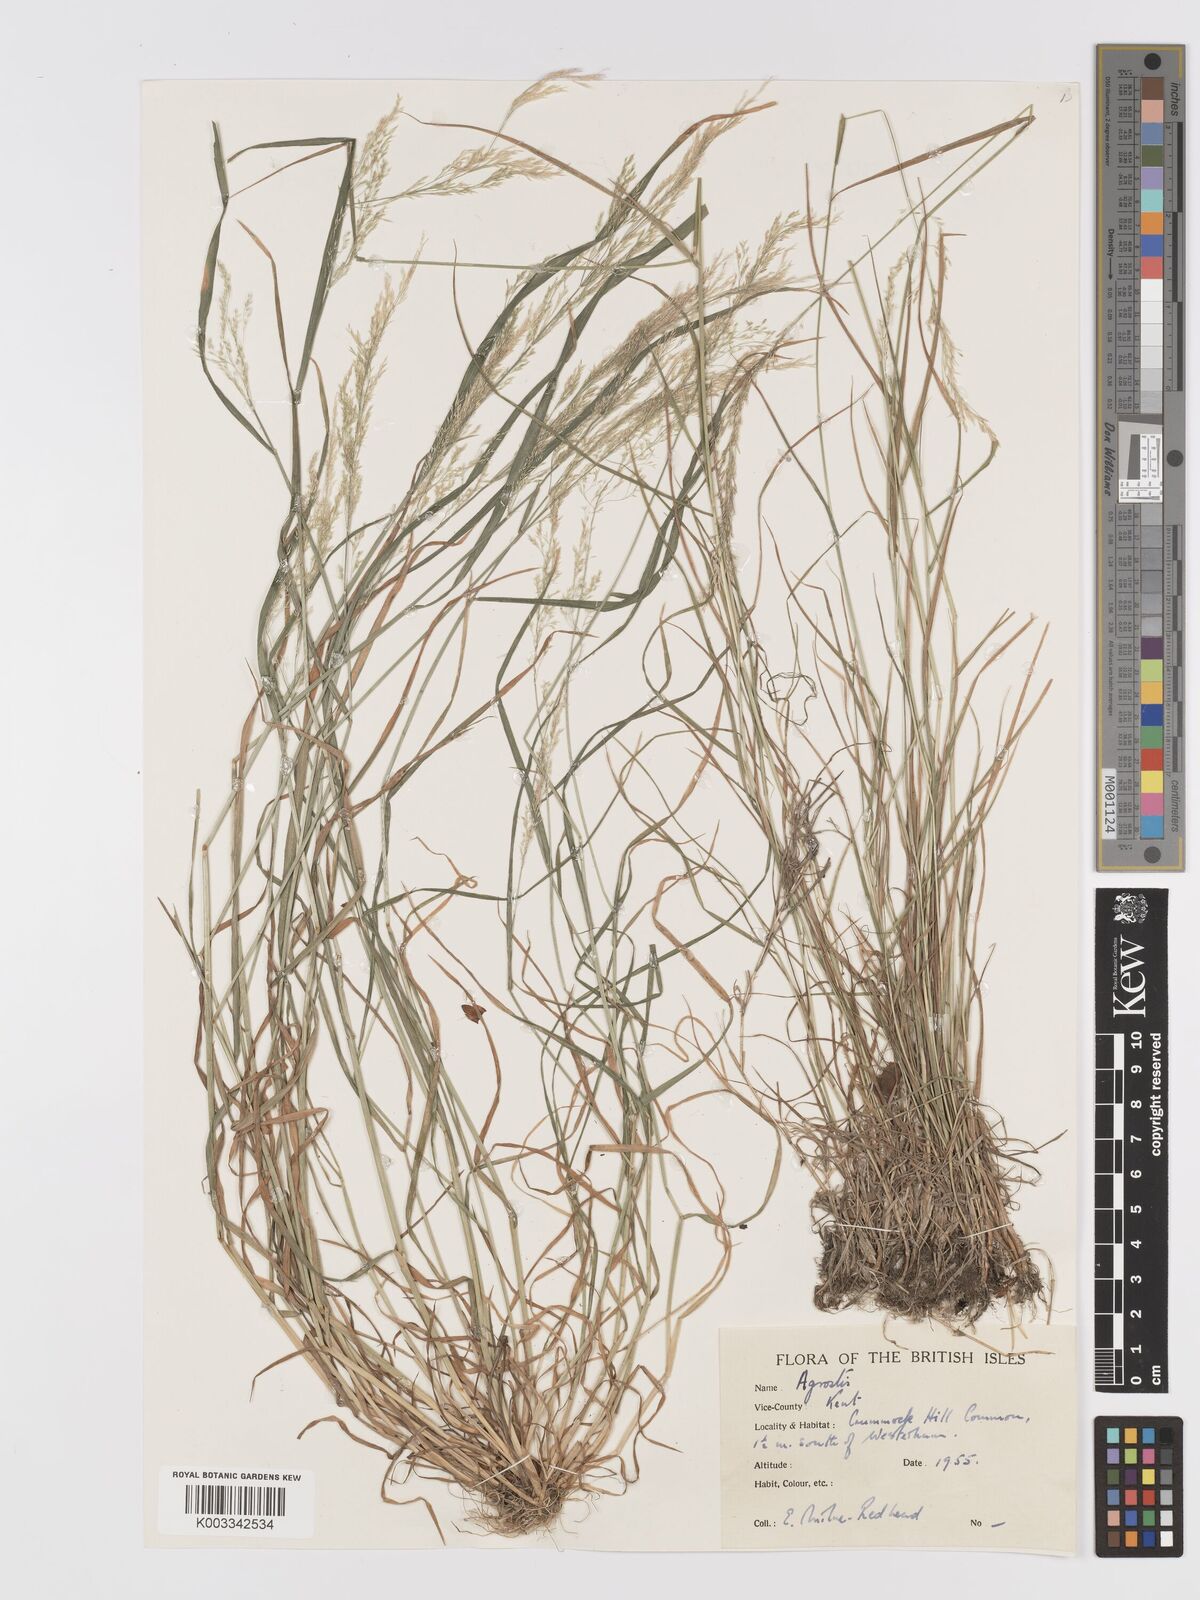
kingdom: Plantae
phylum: Tracheophyta
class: Liliopsida
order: Poales
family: Poaceae
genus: Agrostis
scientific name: Agrostis
